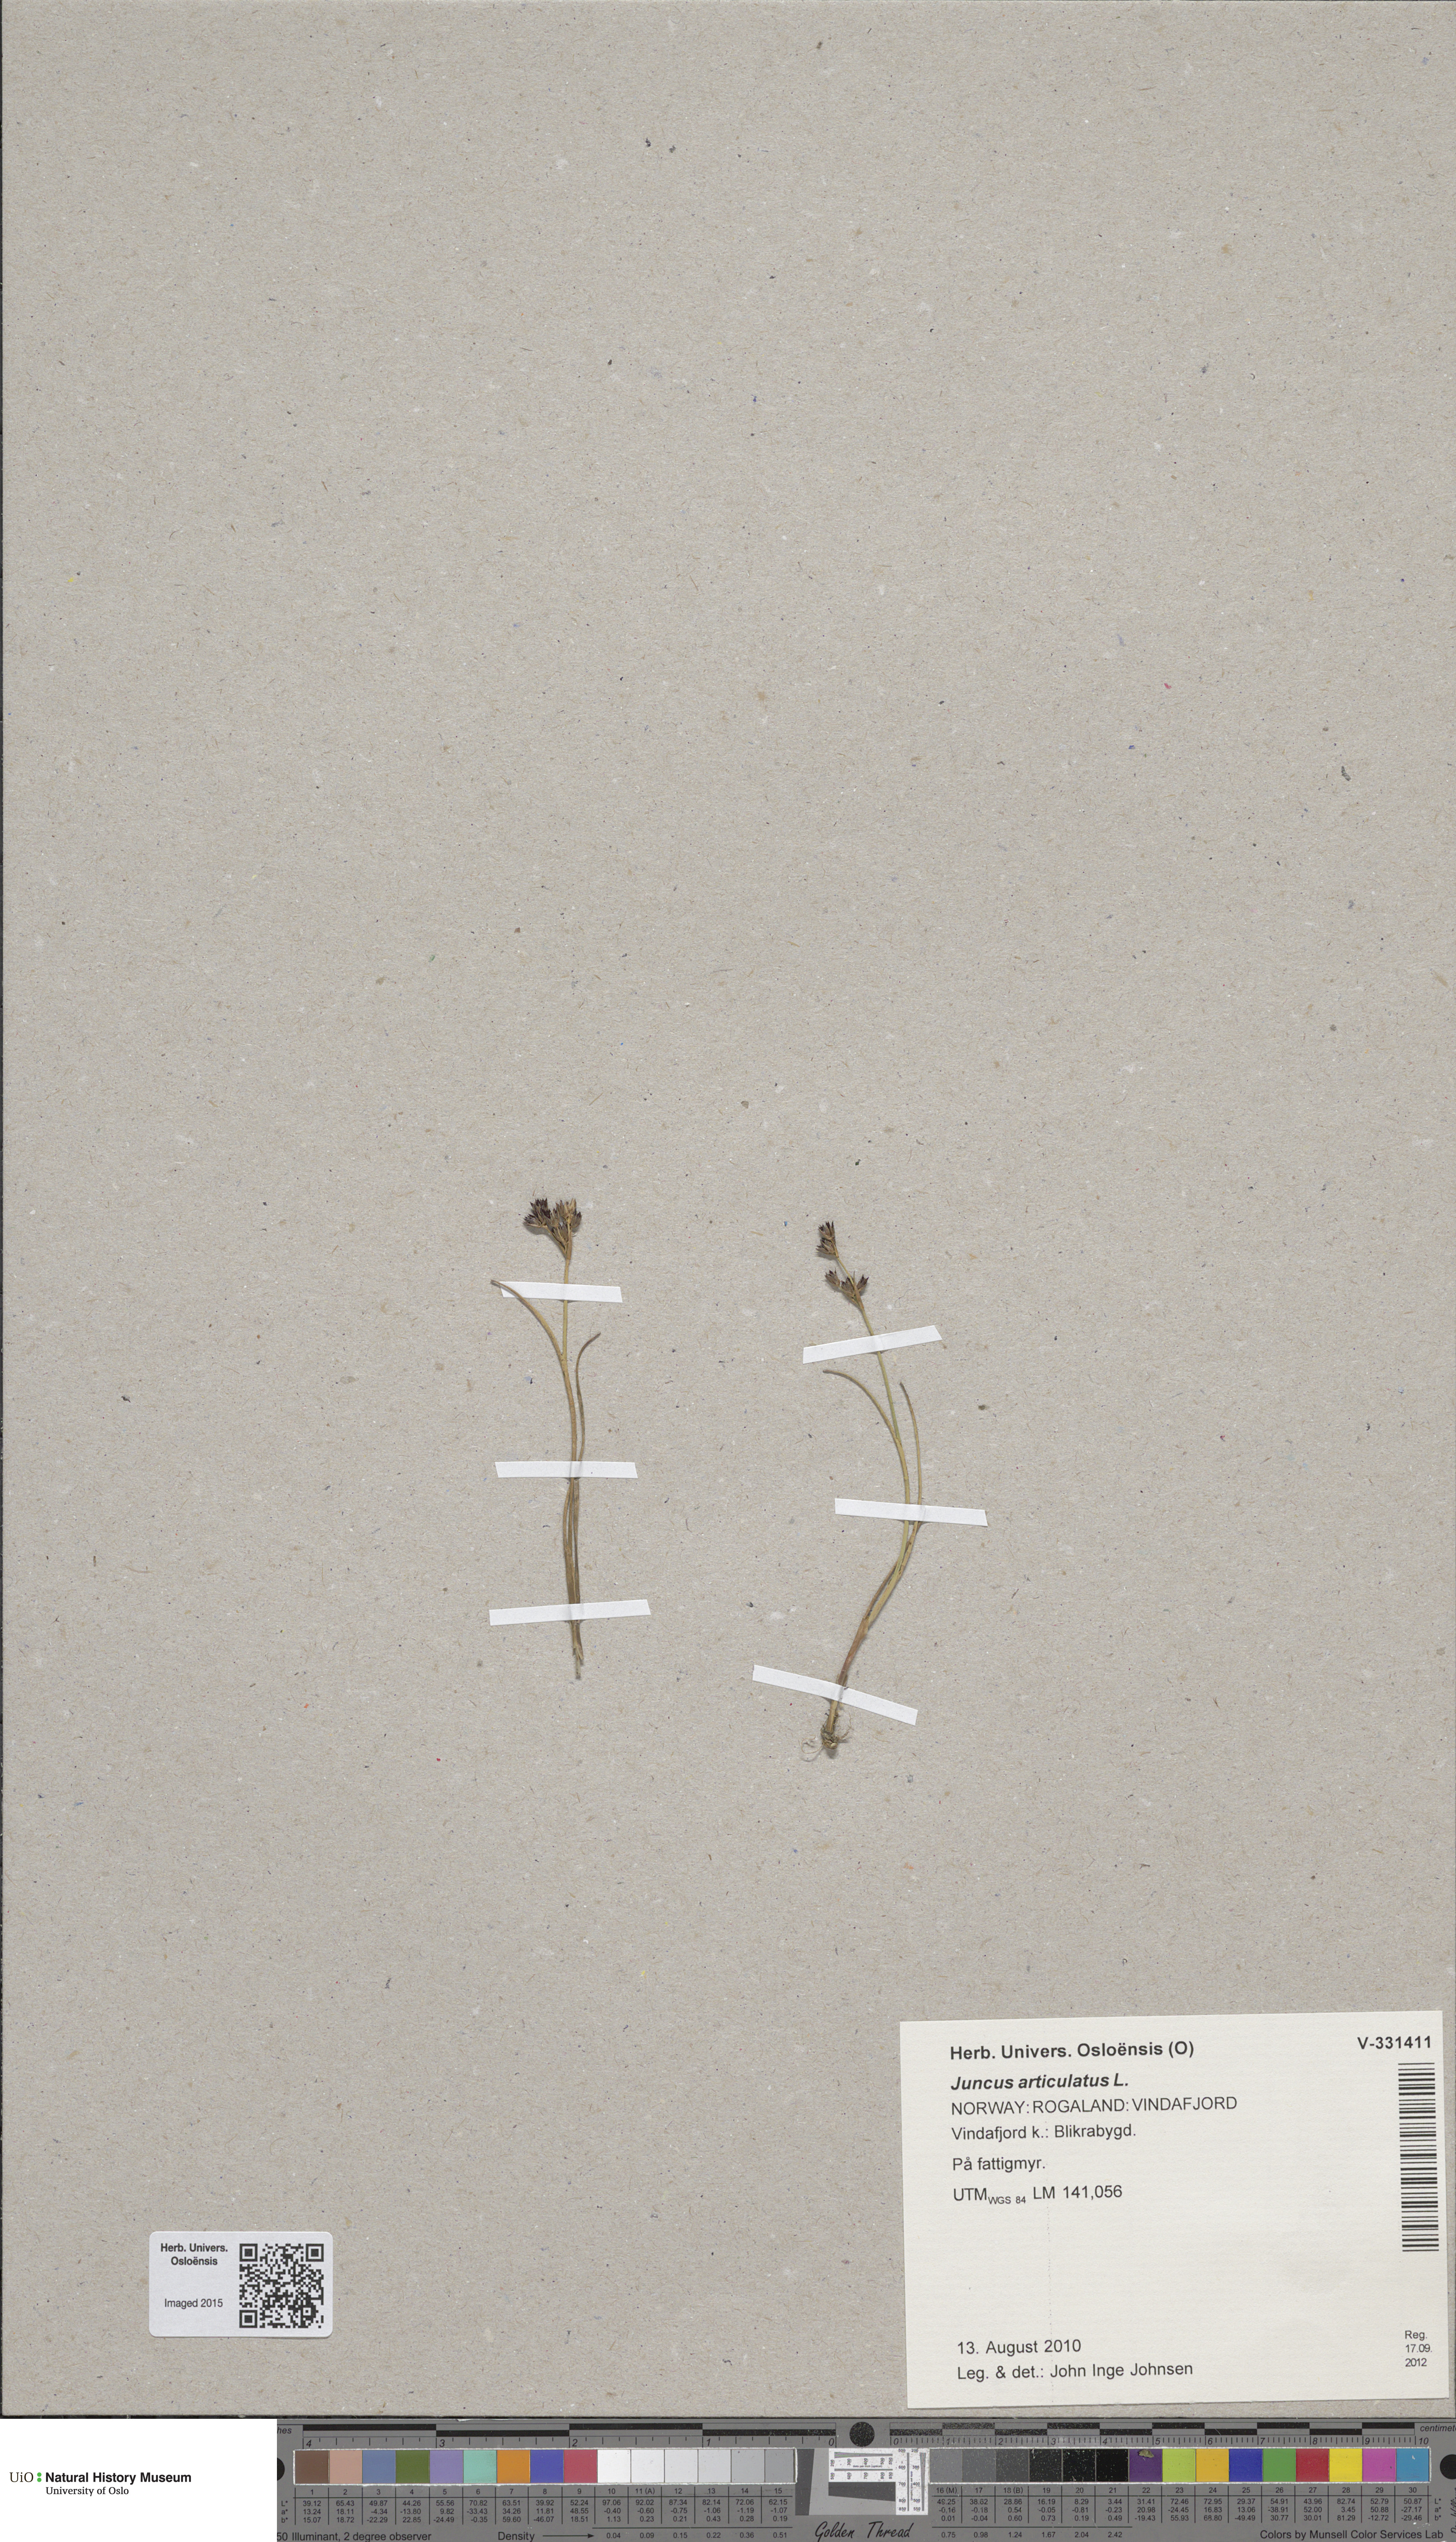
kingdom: Plantae
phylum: Tracheophyta
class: Liliopsida
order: Poales
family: Juncaceae
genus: Juncus
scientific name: Juncus articulatus
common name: Jointed rush
